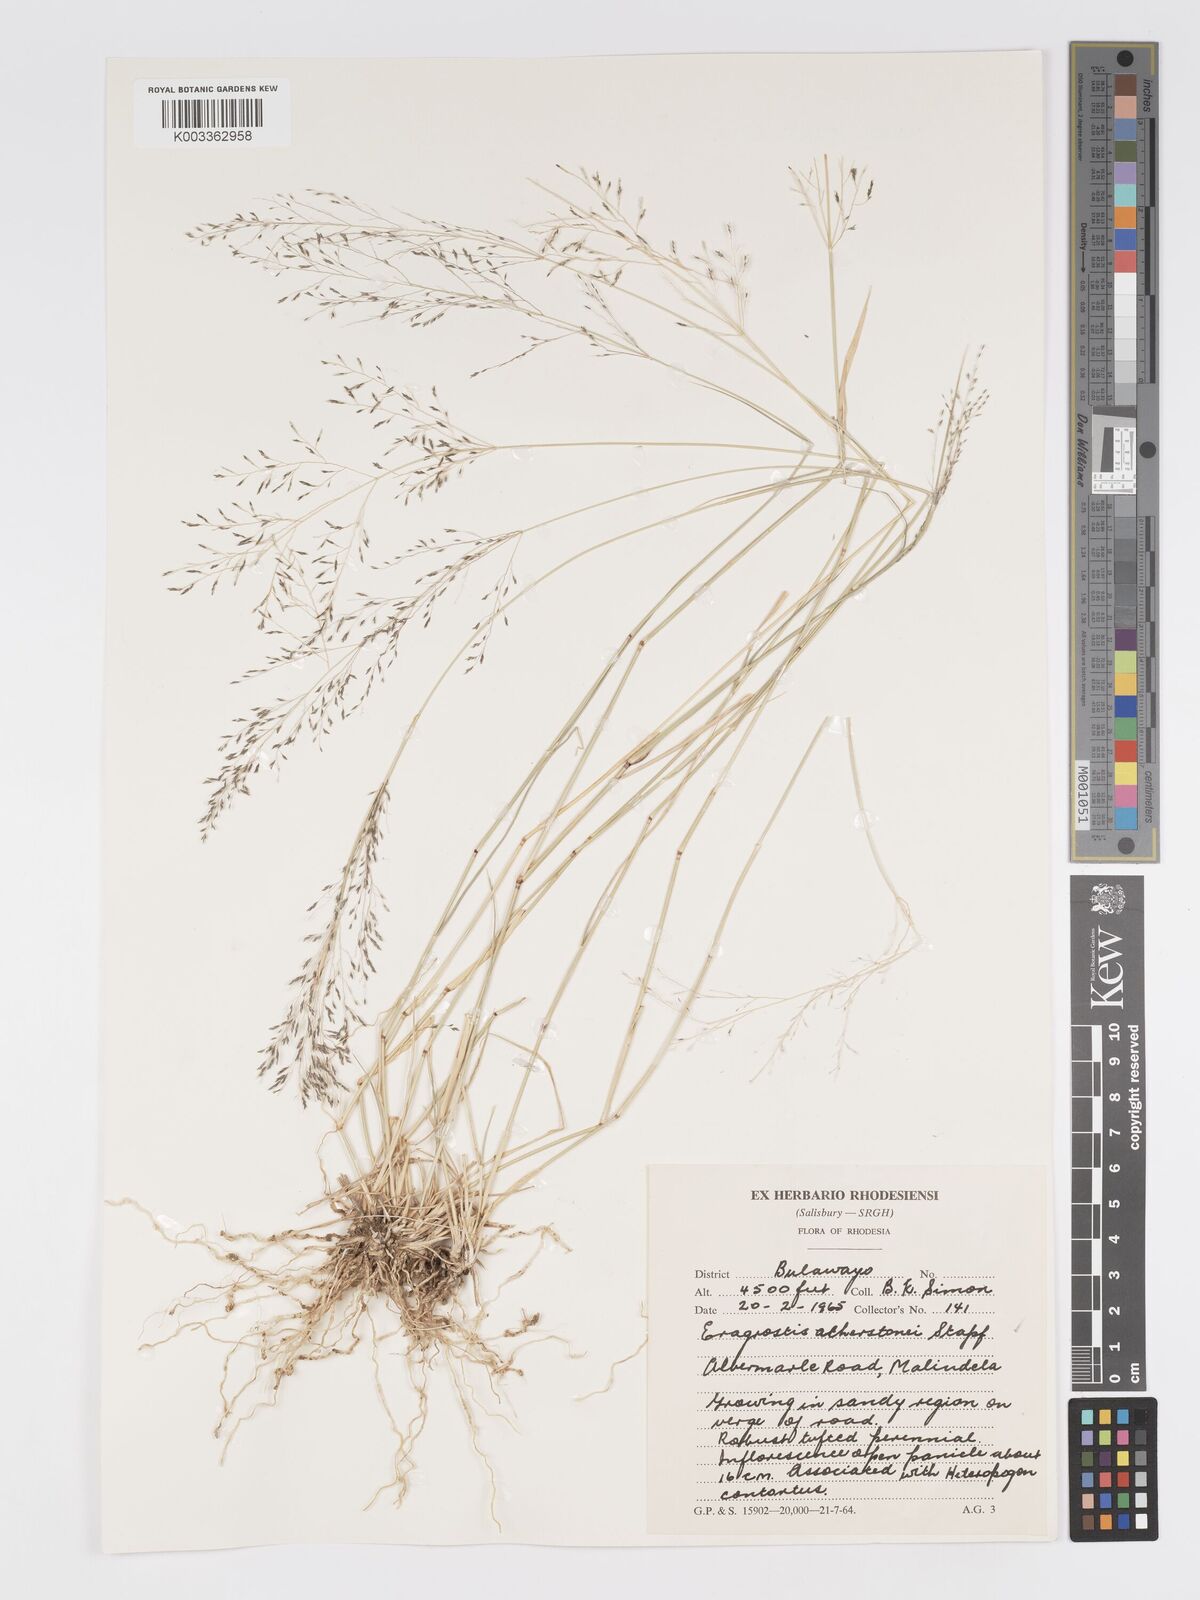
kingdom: Plantae
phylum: Tracheophyta
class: Liliopsida
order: Poales
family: Poaceae
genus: Eragrostis
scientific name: Eragrostis cylindriflora
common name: Cylinderflower lovegrass
